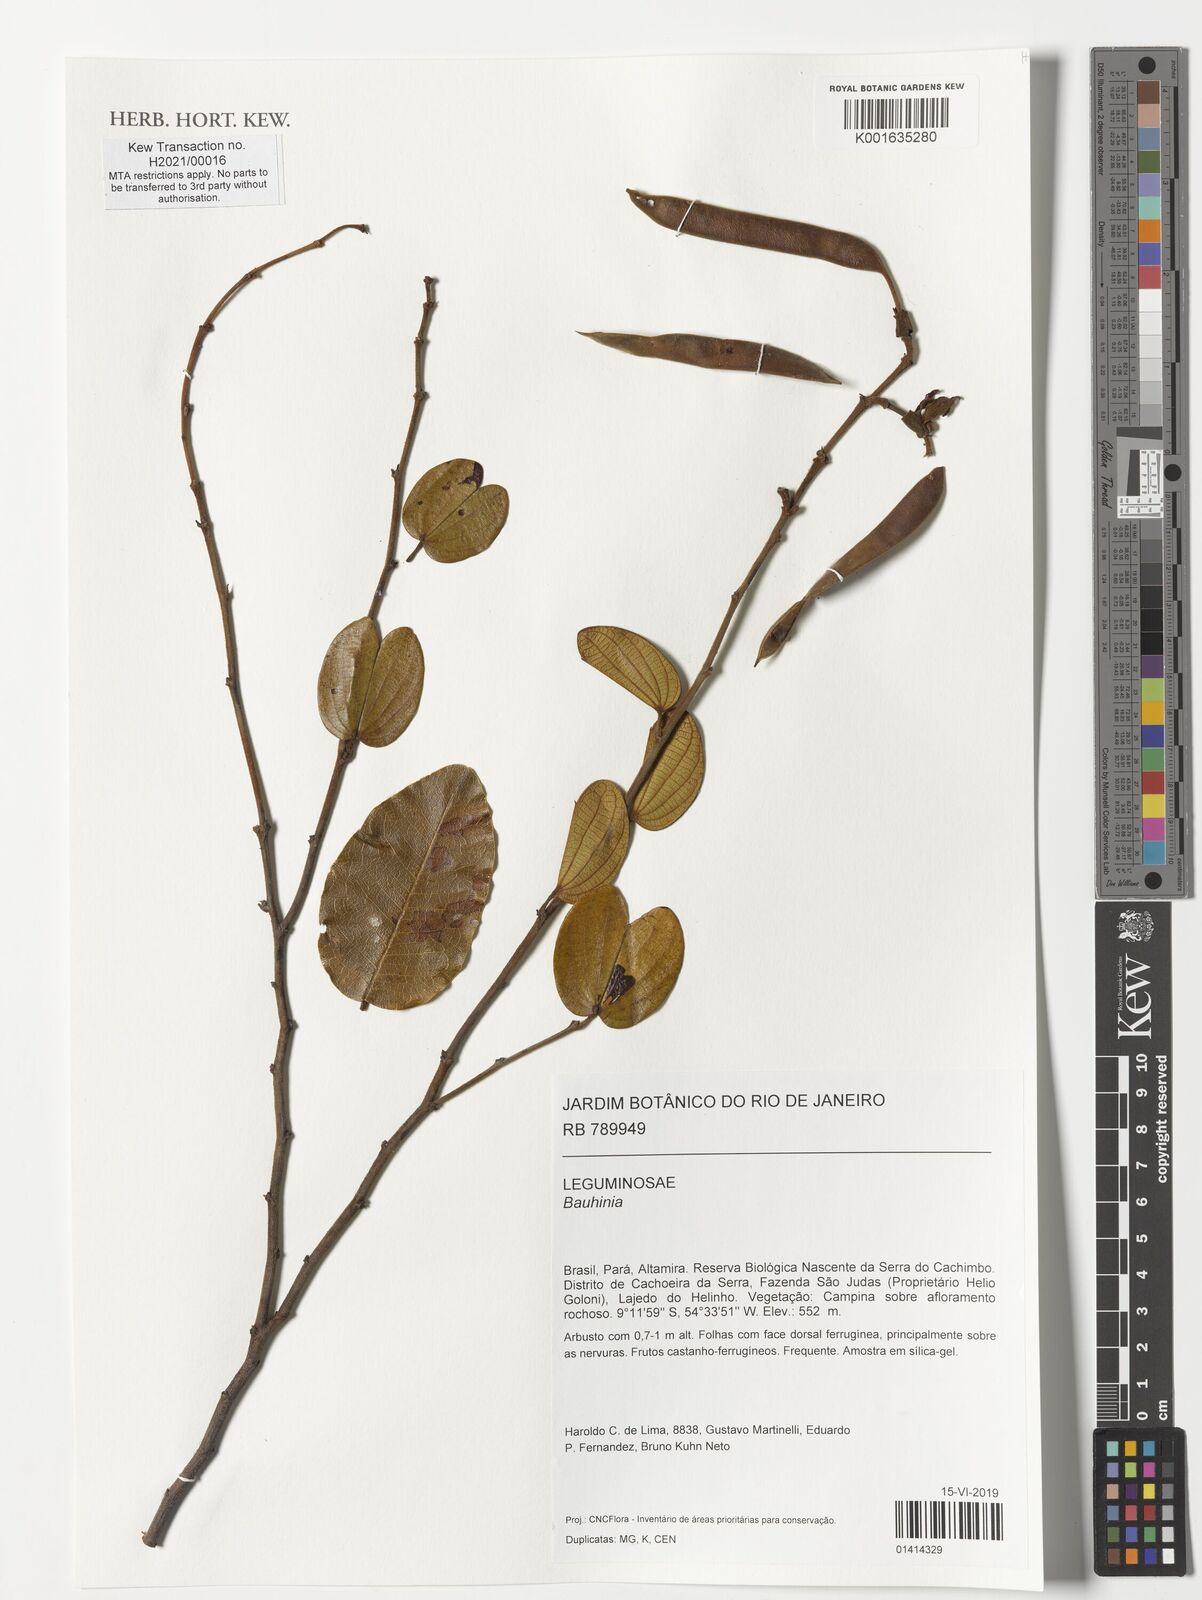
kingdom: Plantae
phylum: Tracheophyta
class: Magnoliopsida
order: Fabales
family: Fabaceae
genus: Bauhinia
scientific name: Bauhinia
